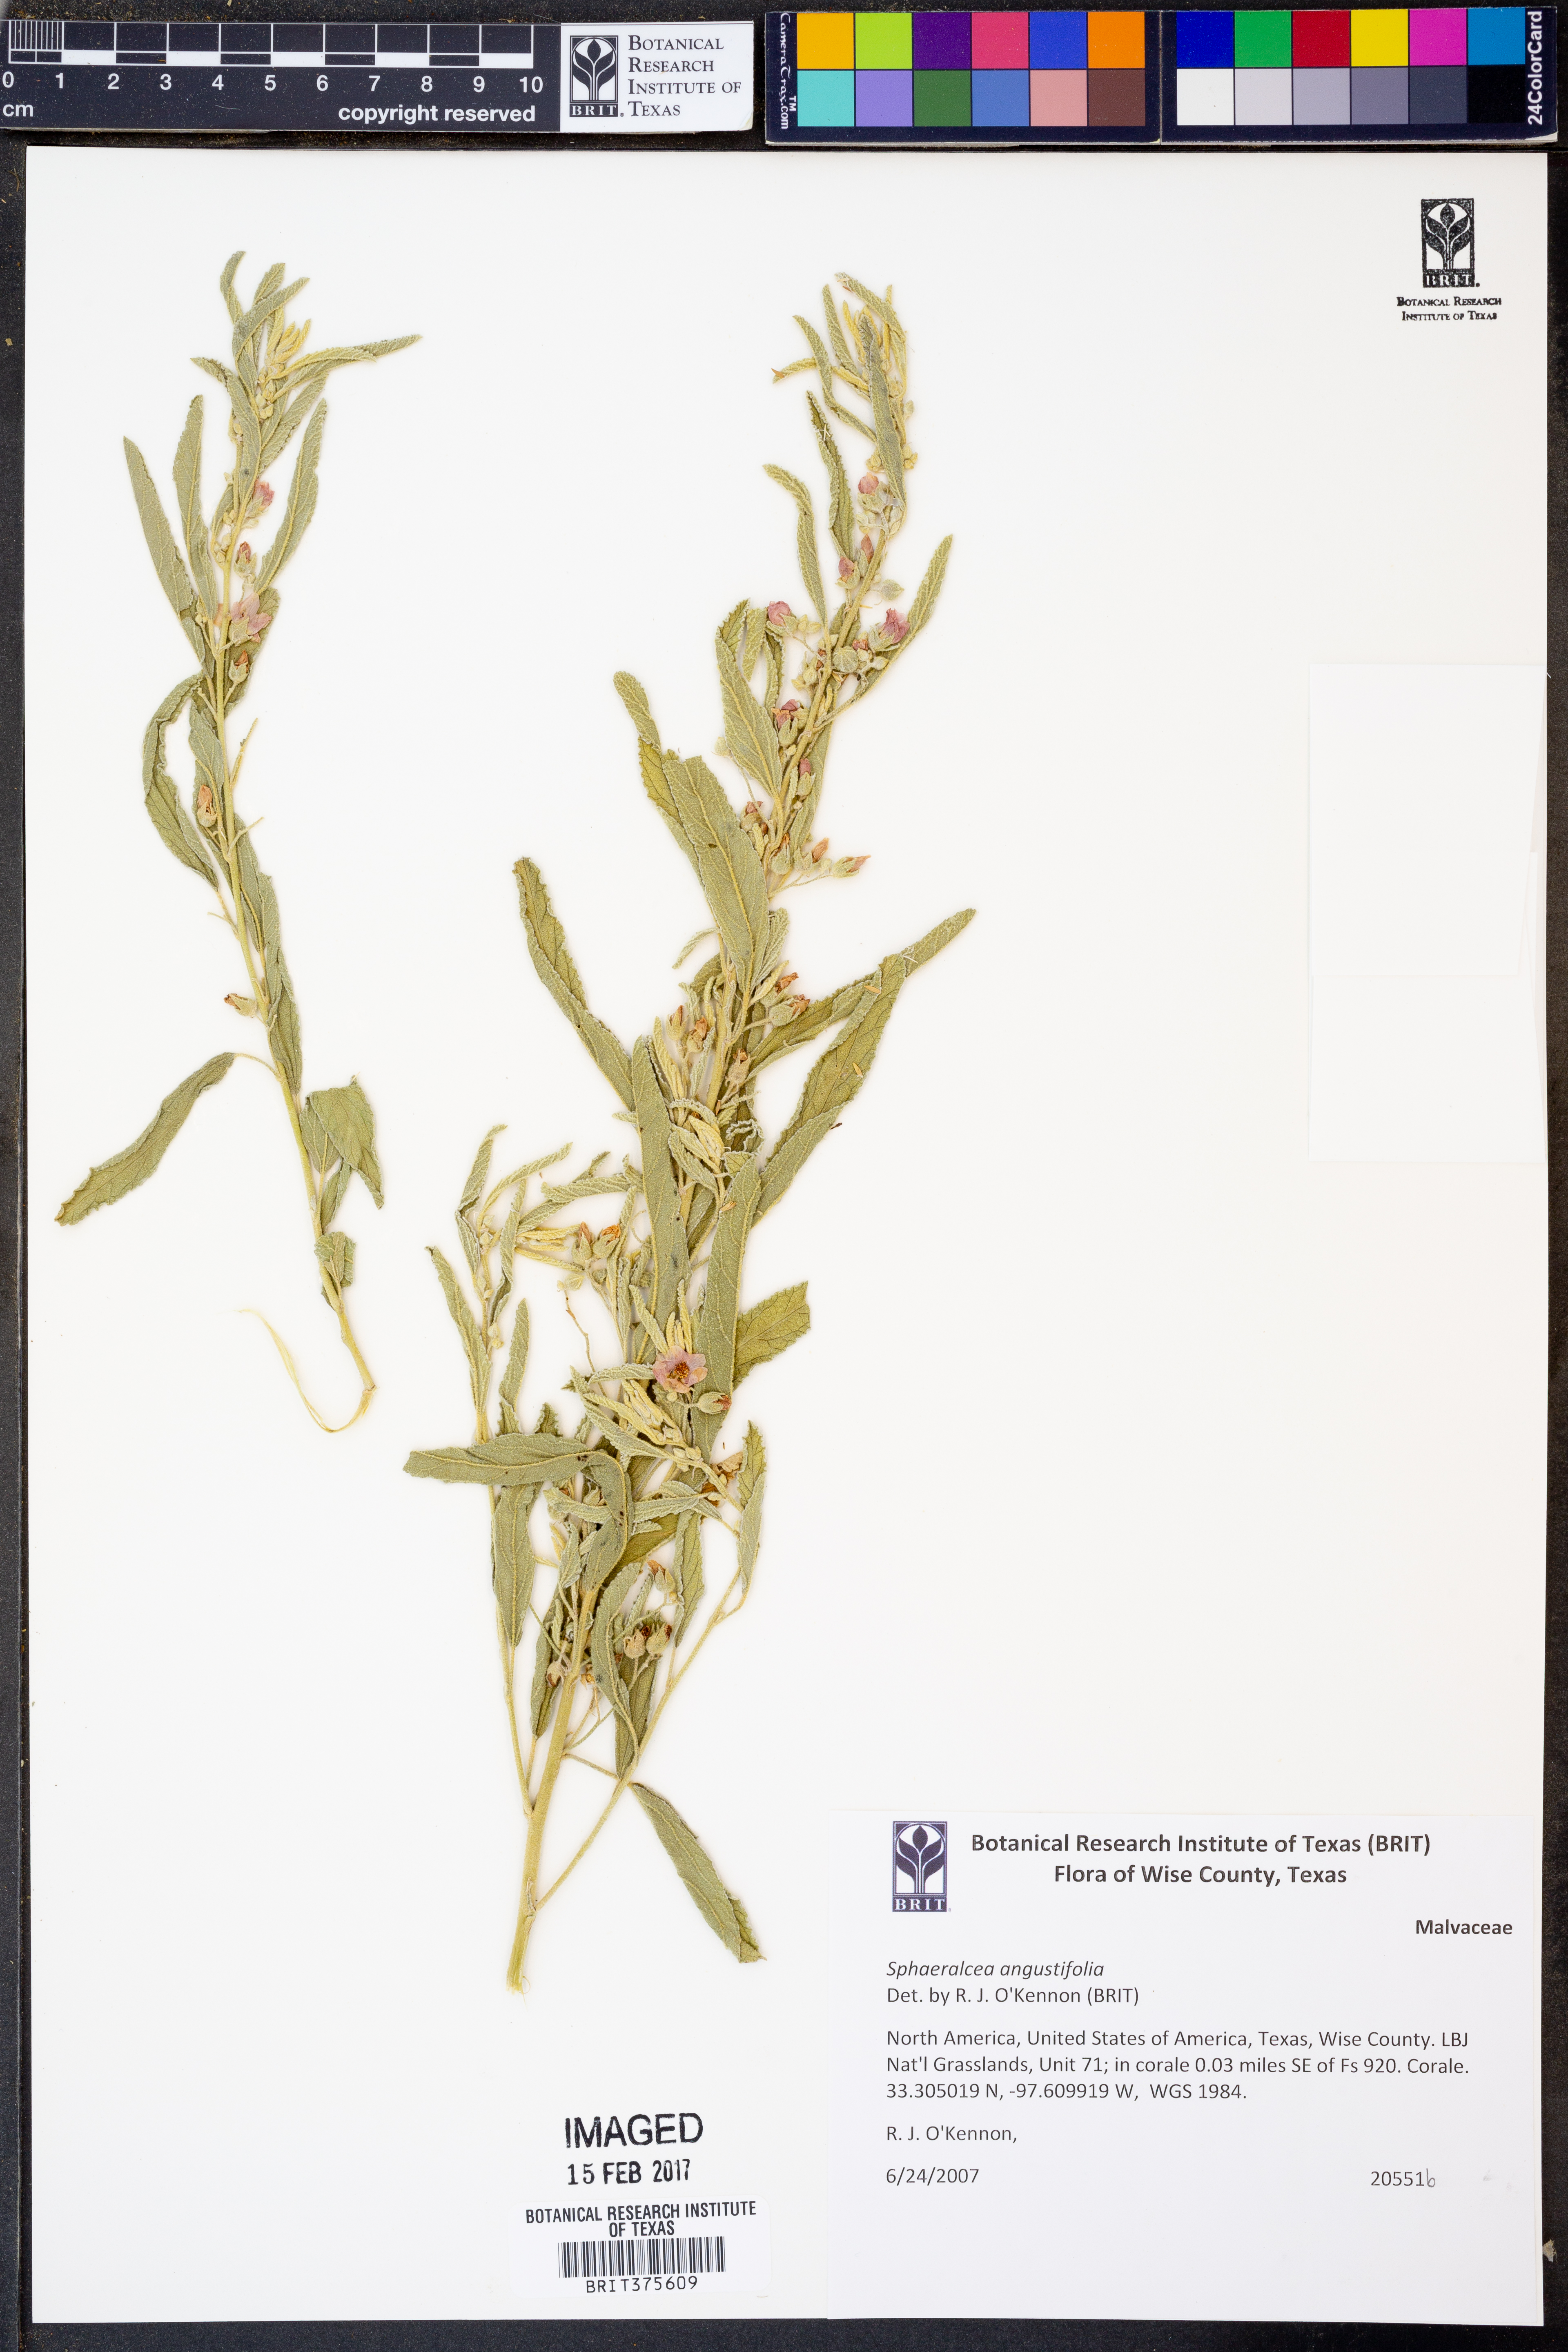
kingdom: Plantae
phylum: Tracheophyta
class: Magnoliopsida
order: Malvales
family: Malvaceae
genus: Sphaeralcea
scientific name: Sphaeralcea angustifolia
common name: Copper globe-mallow
